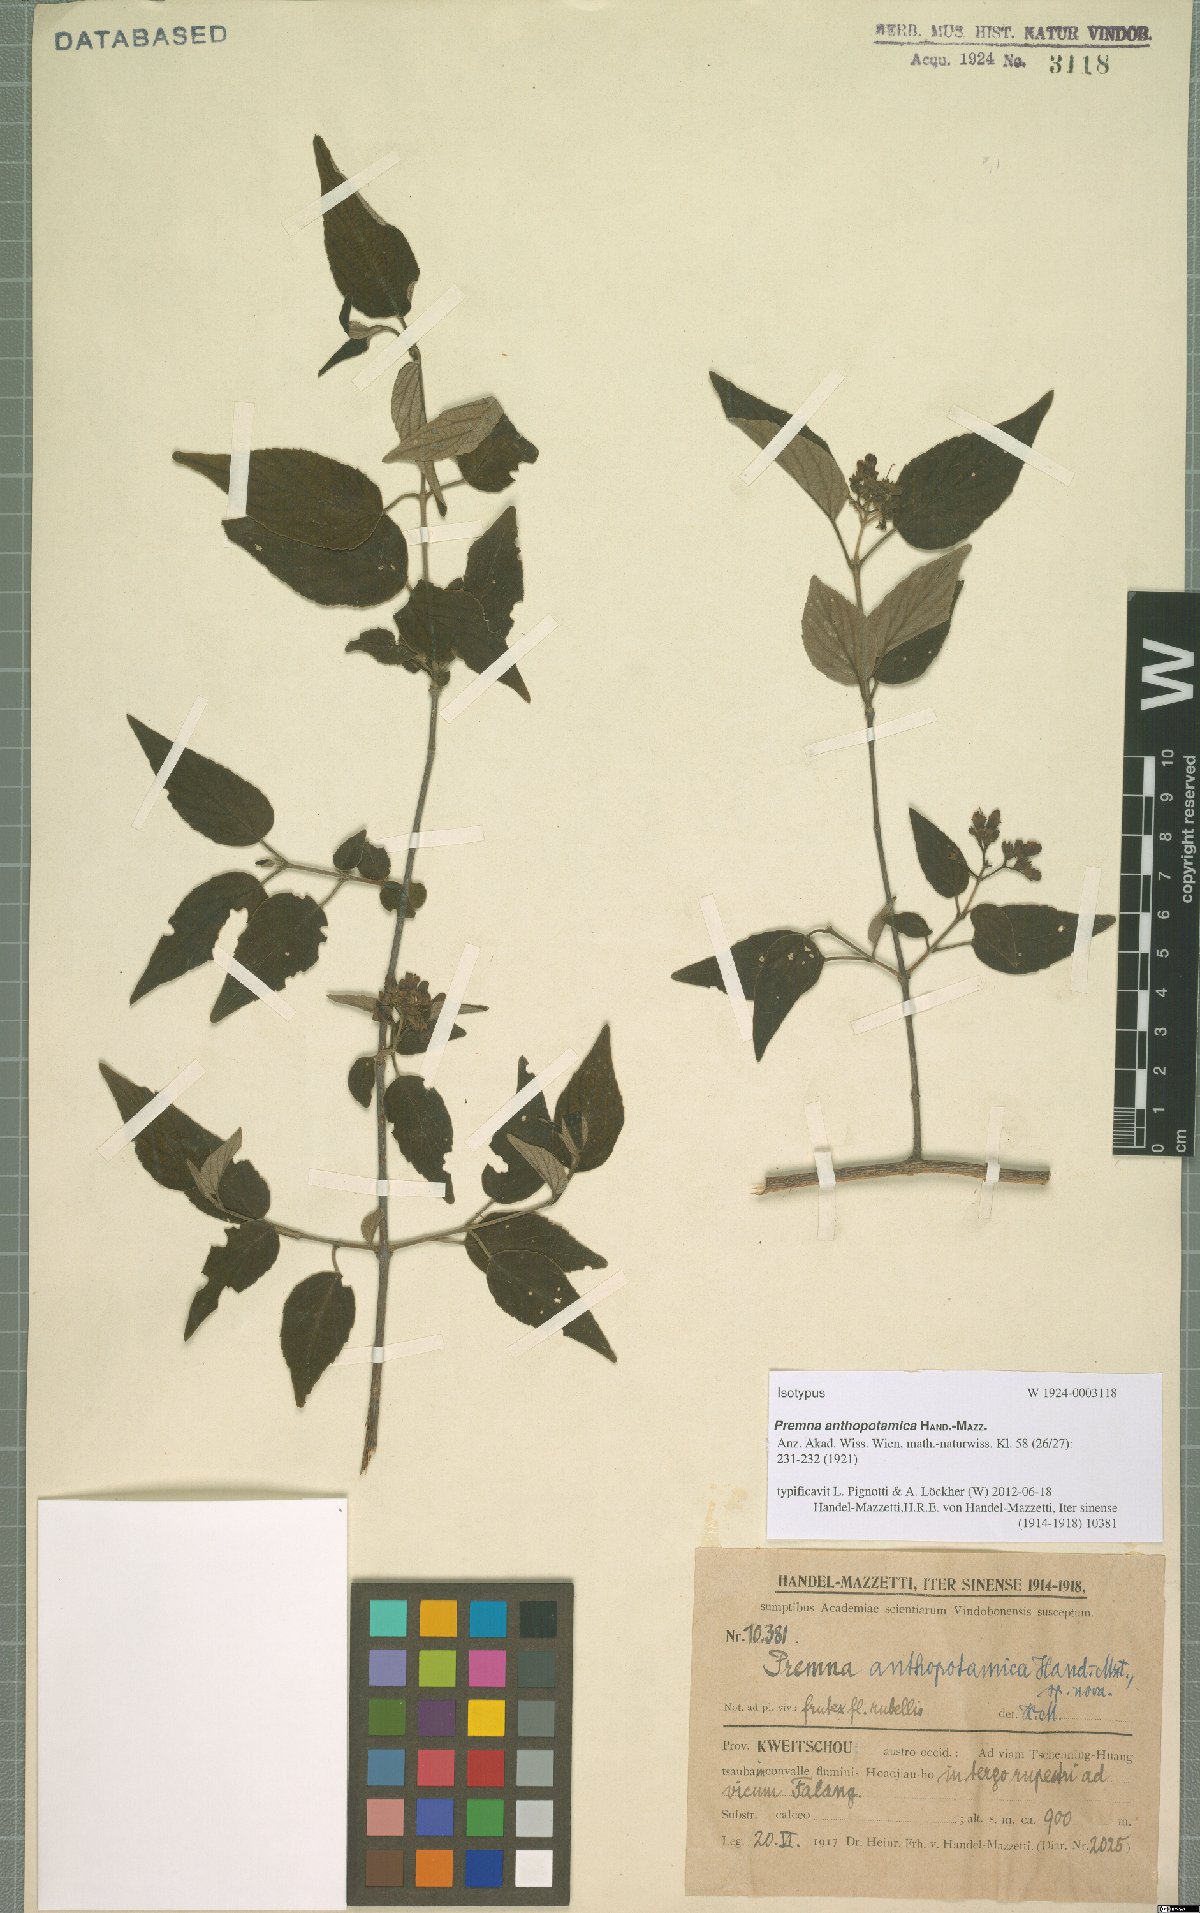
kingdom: Plantae
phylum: Tracheophyta
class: Magnoliopsida
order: Lamiales
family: Lamiaceae
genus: Premna
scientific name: Premna acutata
